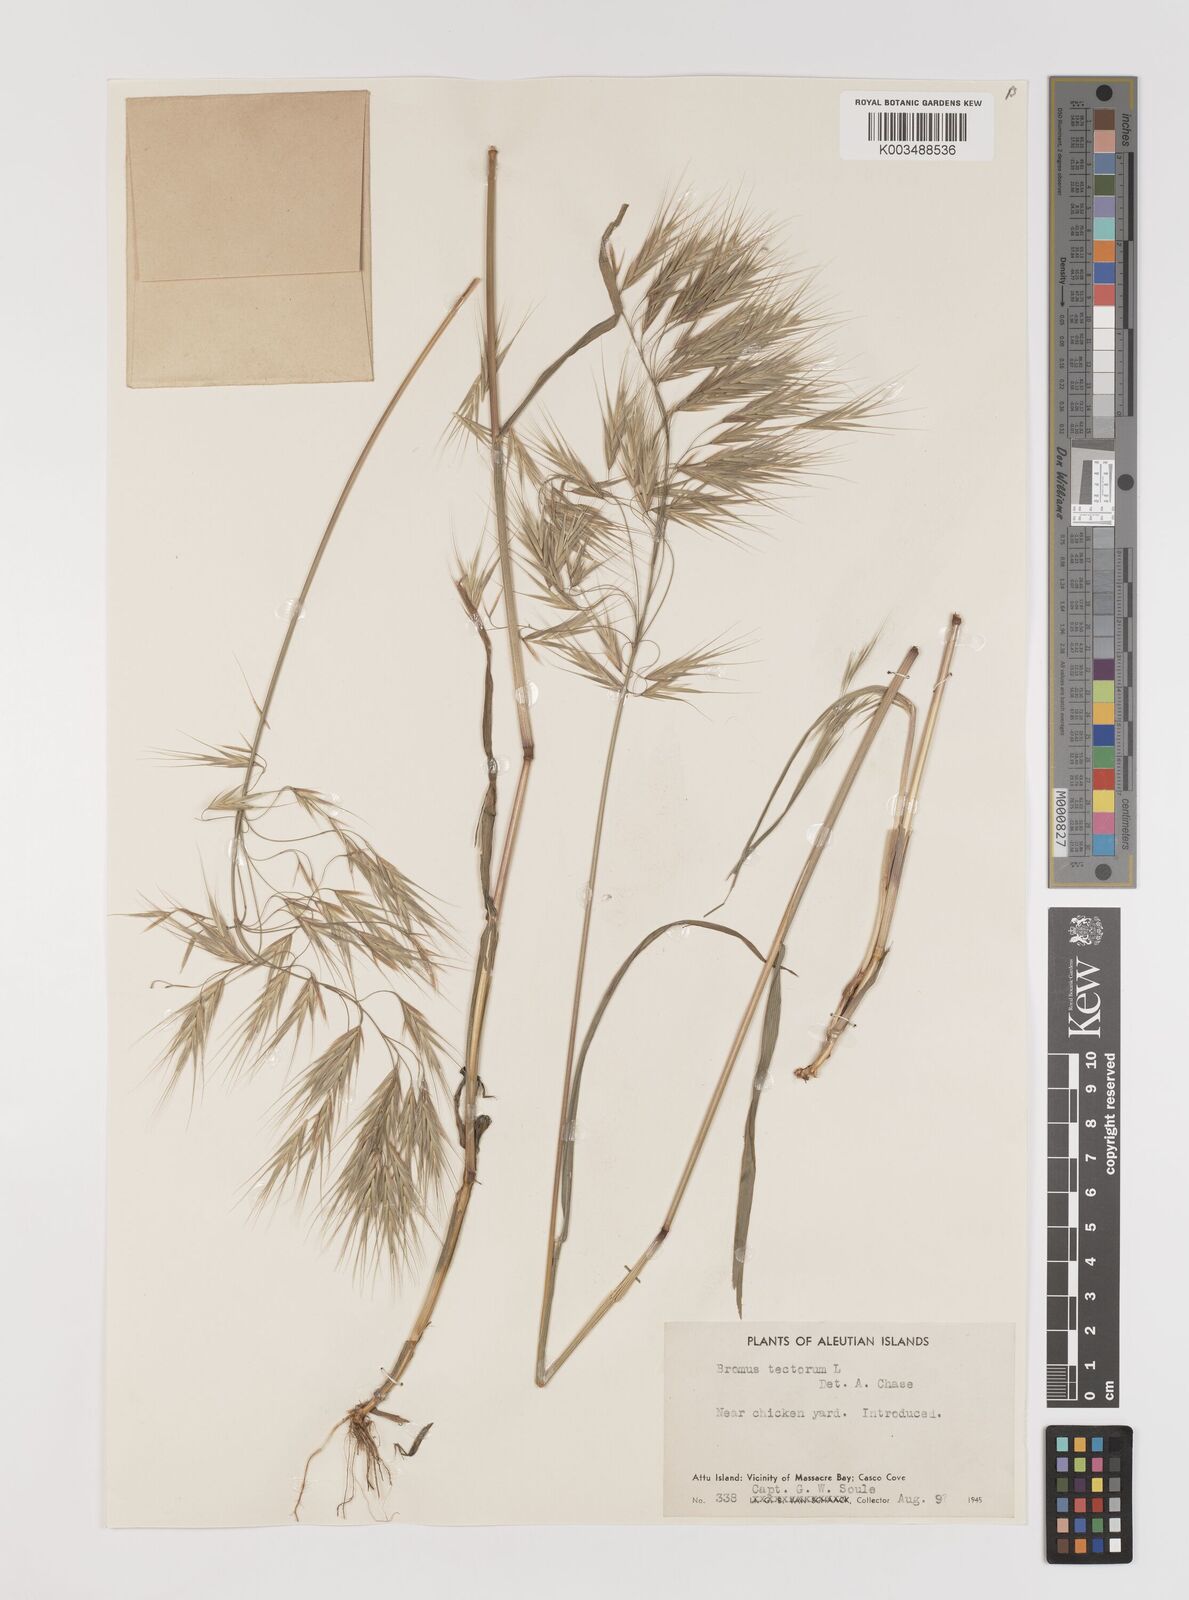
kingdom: Plantae
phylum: Tracheophyta
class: Liliopsida
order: Poales
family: Poaceae
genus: Bromus
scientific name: Bromus tectorum
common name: Cheatgrass
